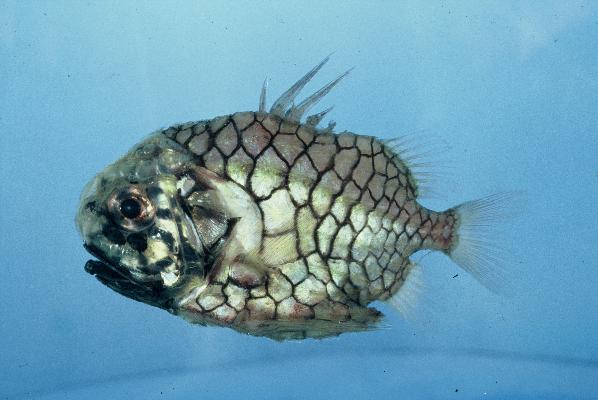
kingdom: Animalia
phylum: Chordata
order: Beryciformes
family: Monocentridae
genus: Monocentris
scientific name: Monocentris japonica
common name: Pineconefish
